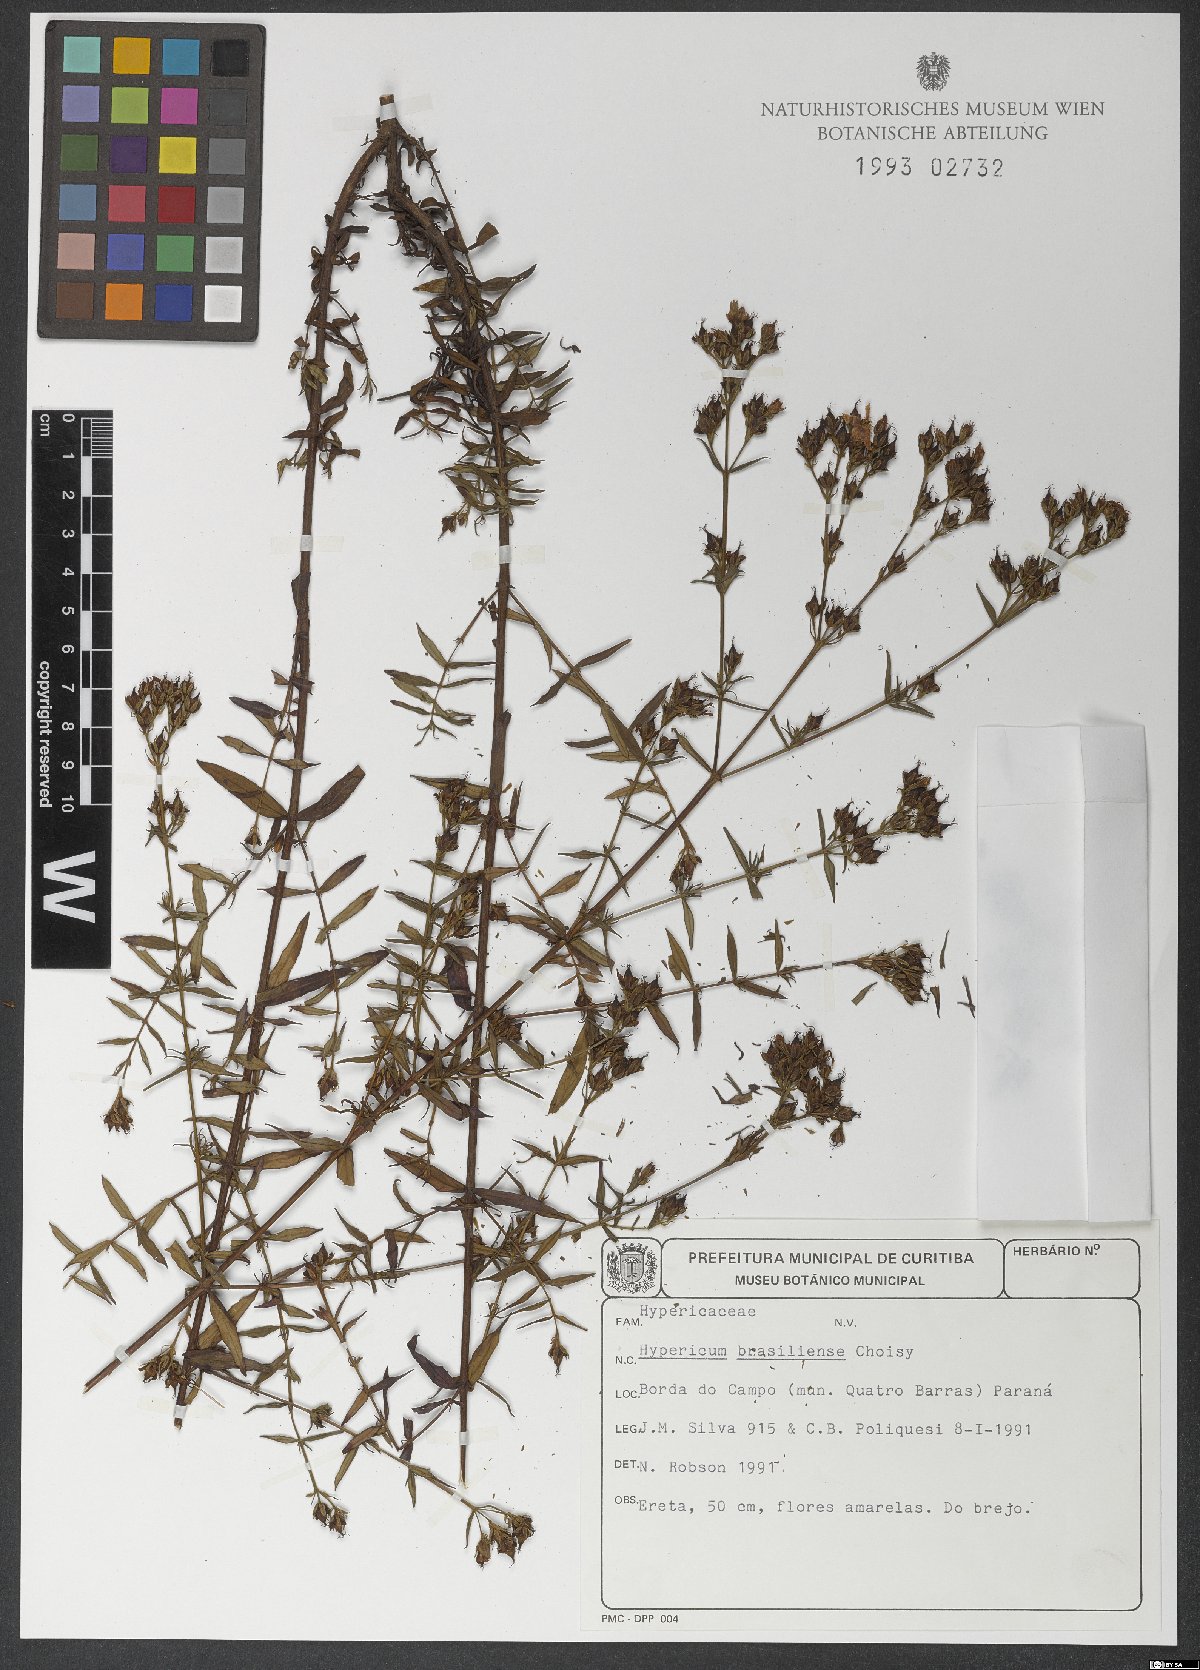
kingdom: Plantae
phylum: Tracheophyta
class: Magnoliopsida
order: Malpighiales
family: Hypericaceae
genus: Hypericum
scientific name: Hypericum brasiliense
